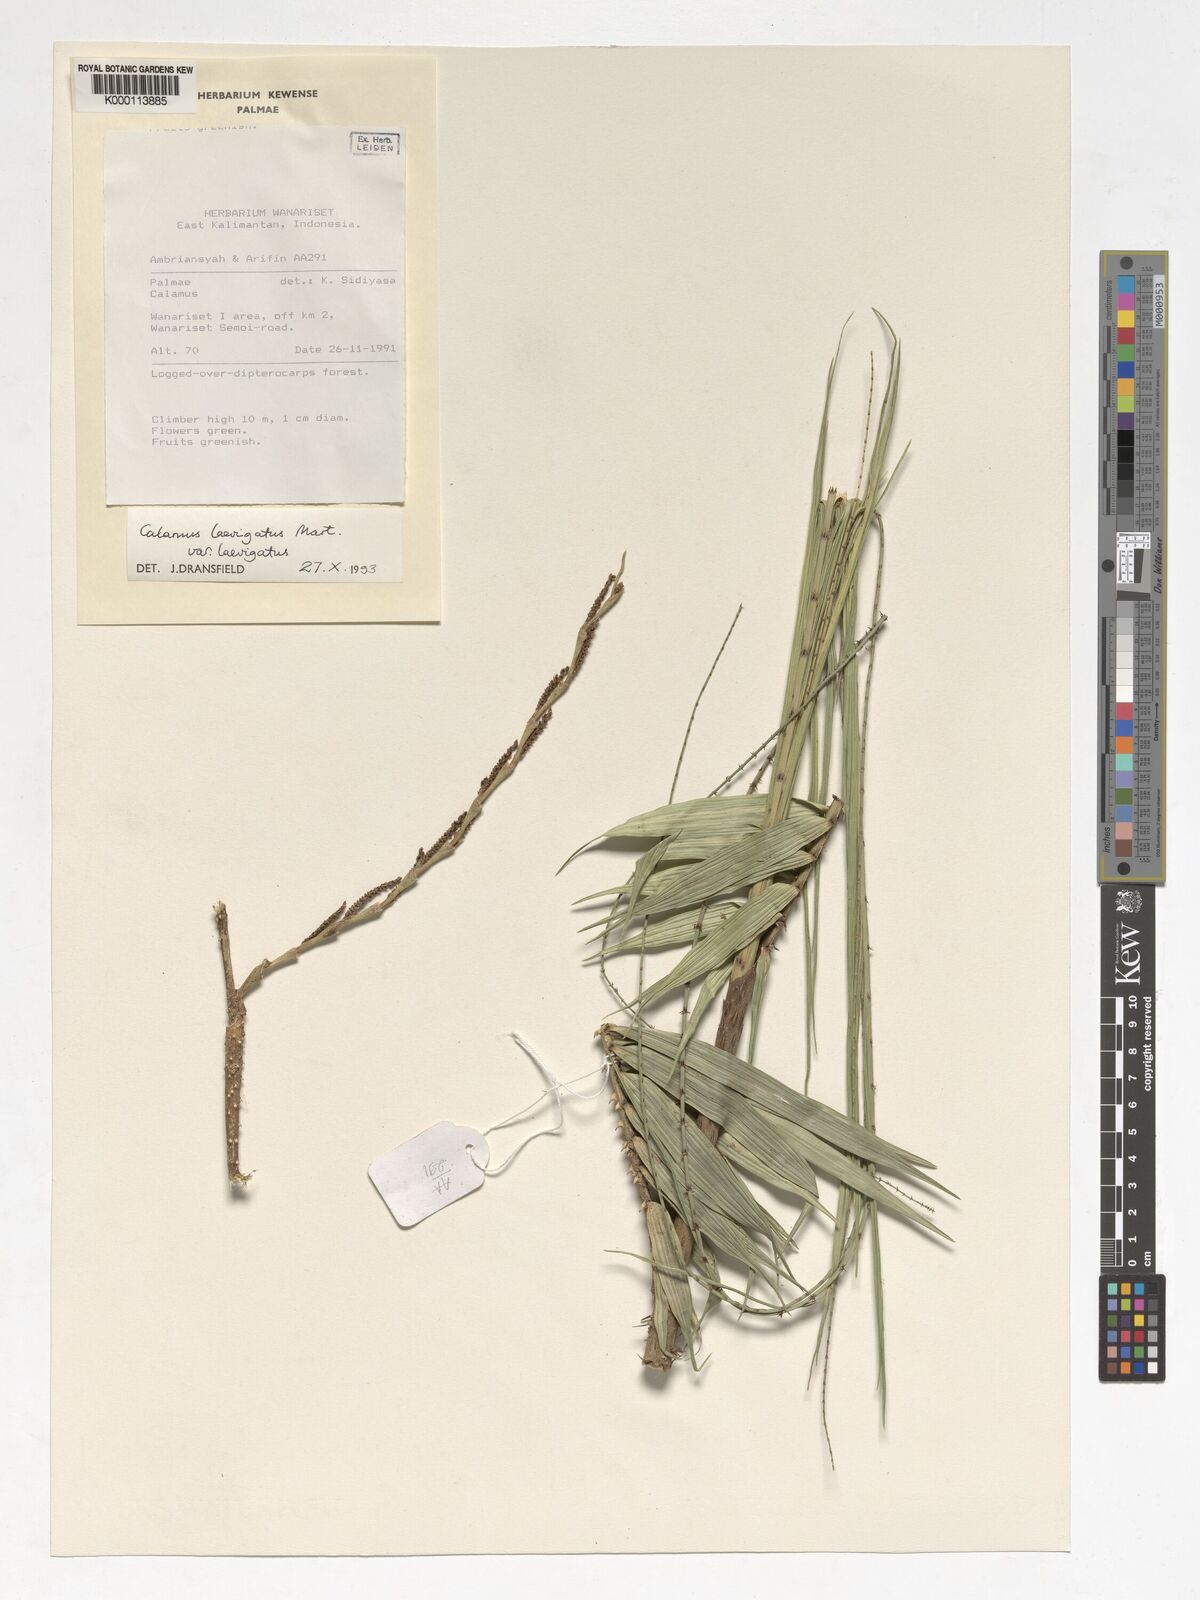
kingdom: Plantae
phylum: Tracheophyta
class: Liliopsida
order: Arecales
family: Arecaceae
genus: Calamus
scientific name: Calamus
